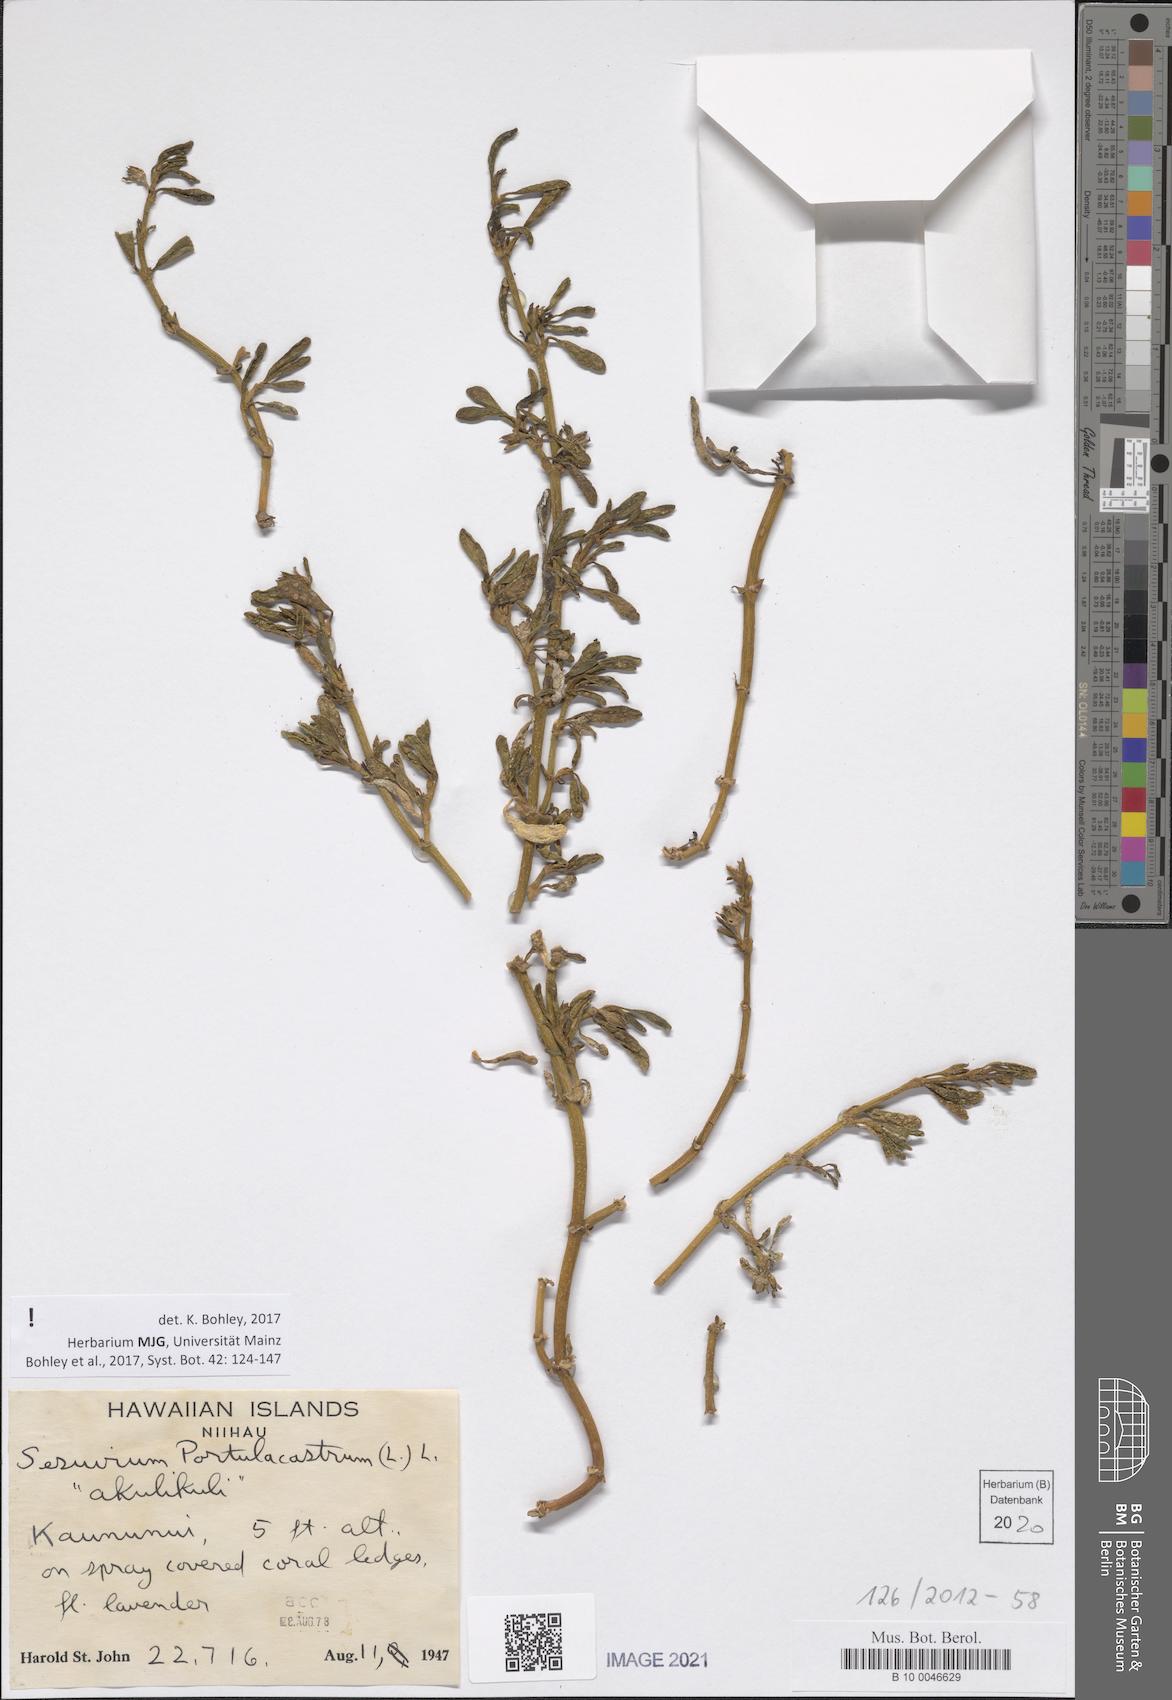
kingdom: Plantae
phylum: Tracheophyta
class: Magnoliopsida
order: Caryophyllales
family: Aizoaceae
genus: Sesuvium
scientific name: Sesuvium portulacastrum
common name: Sea-purslane
